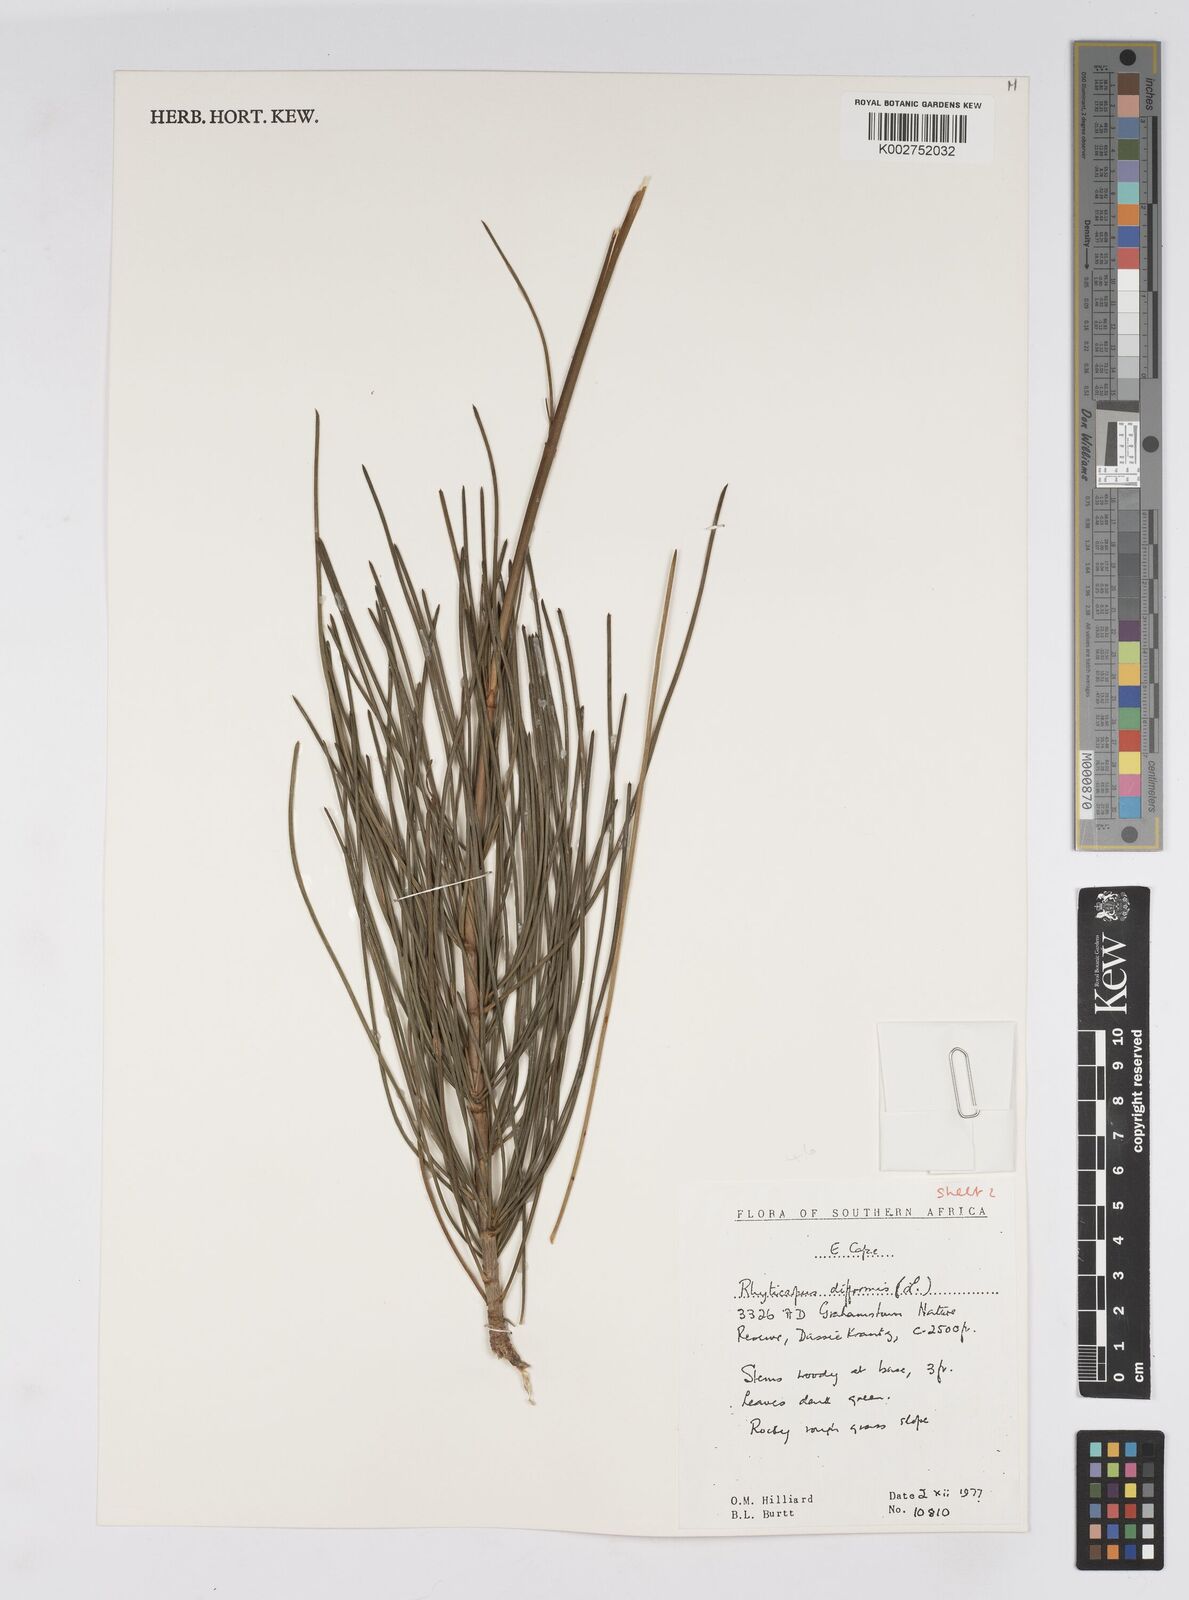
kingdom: Plantae
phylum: Tracheophyta
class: Magnoliopsida
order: Apiales
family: Apiaceae
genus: Anginon
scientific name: Anginon difforme
